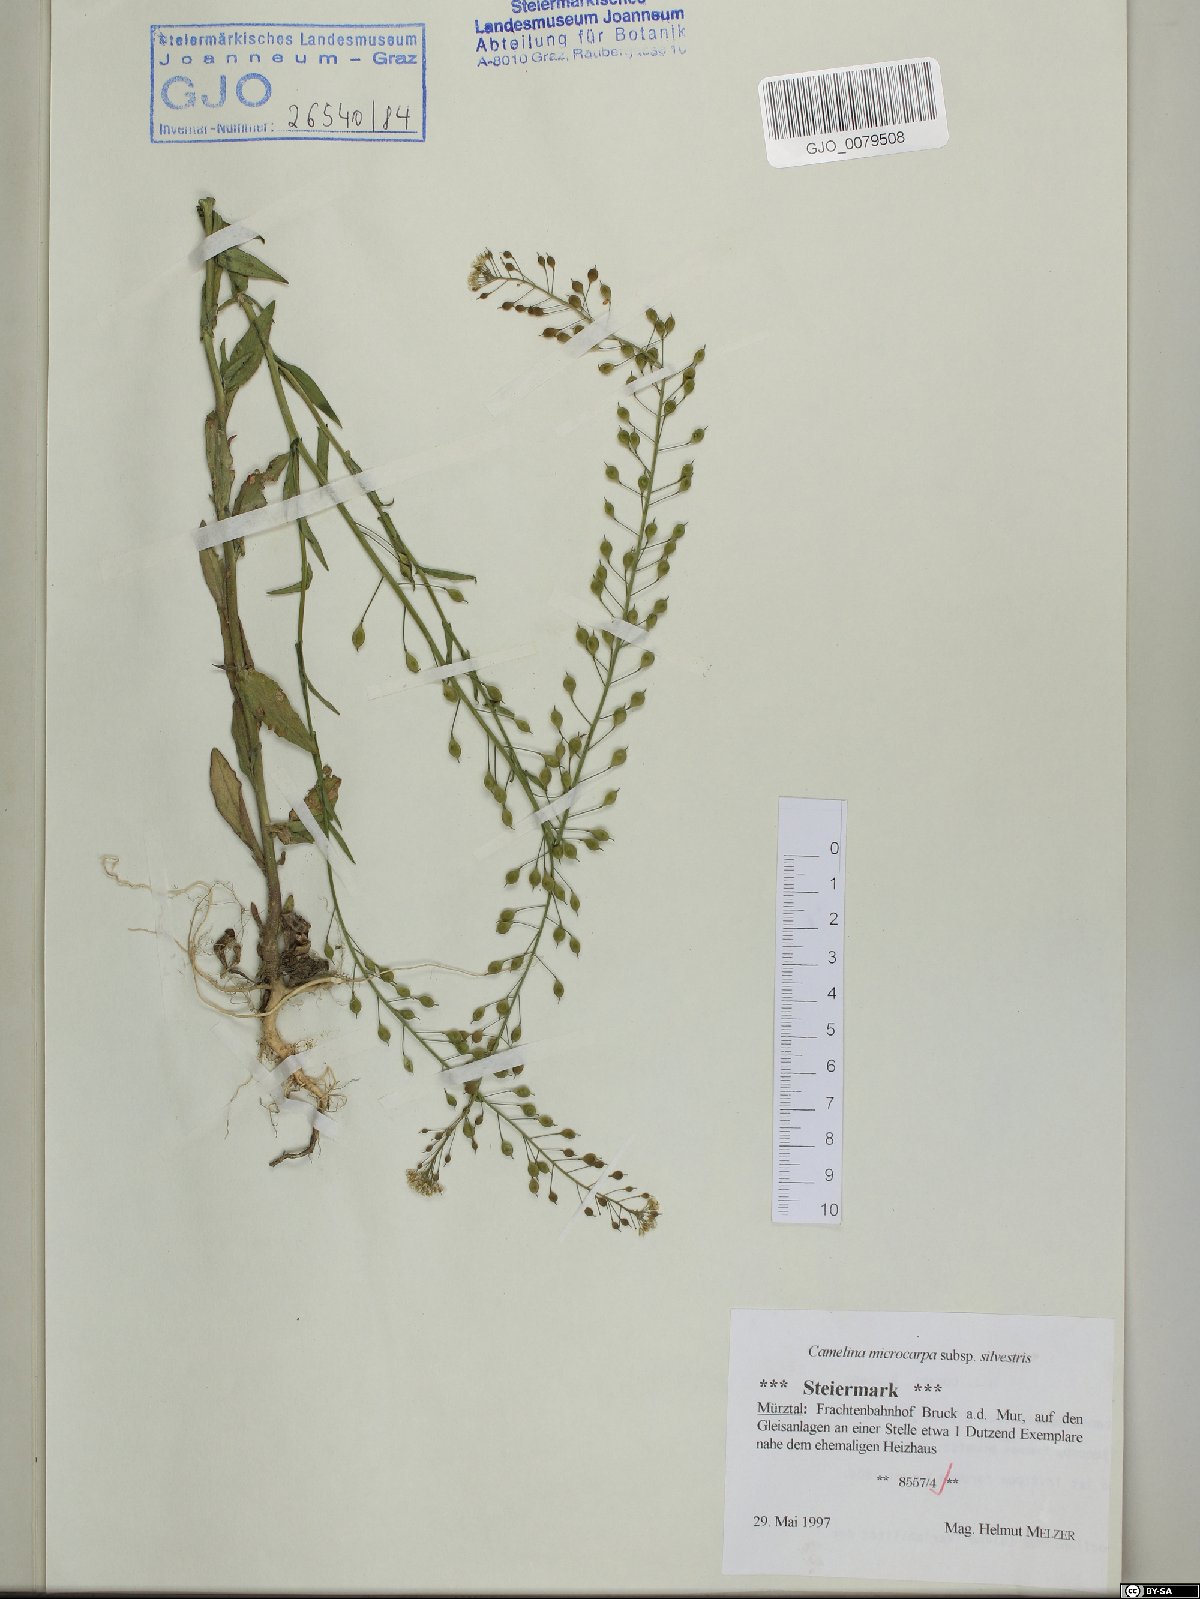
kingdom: Plantae
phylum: Tracheophyta
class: Magnoliopsida
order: Brassicales
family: Brassicaceae
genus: Camelina
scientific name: Camelina microcarpa
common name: Lesser gold-of-pleasure
